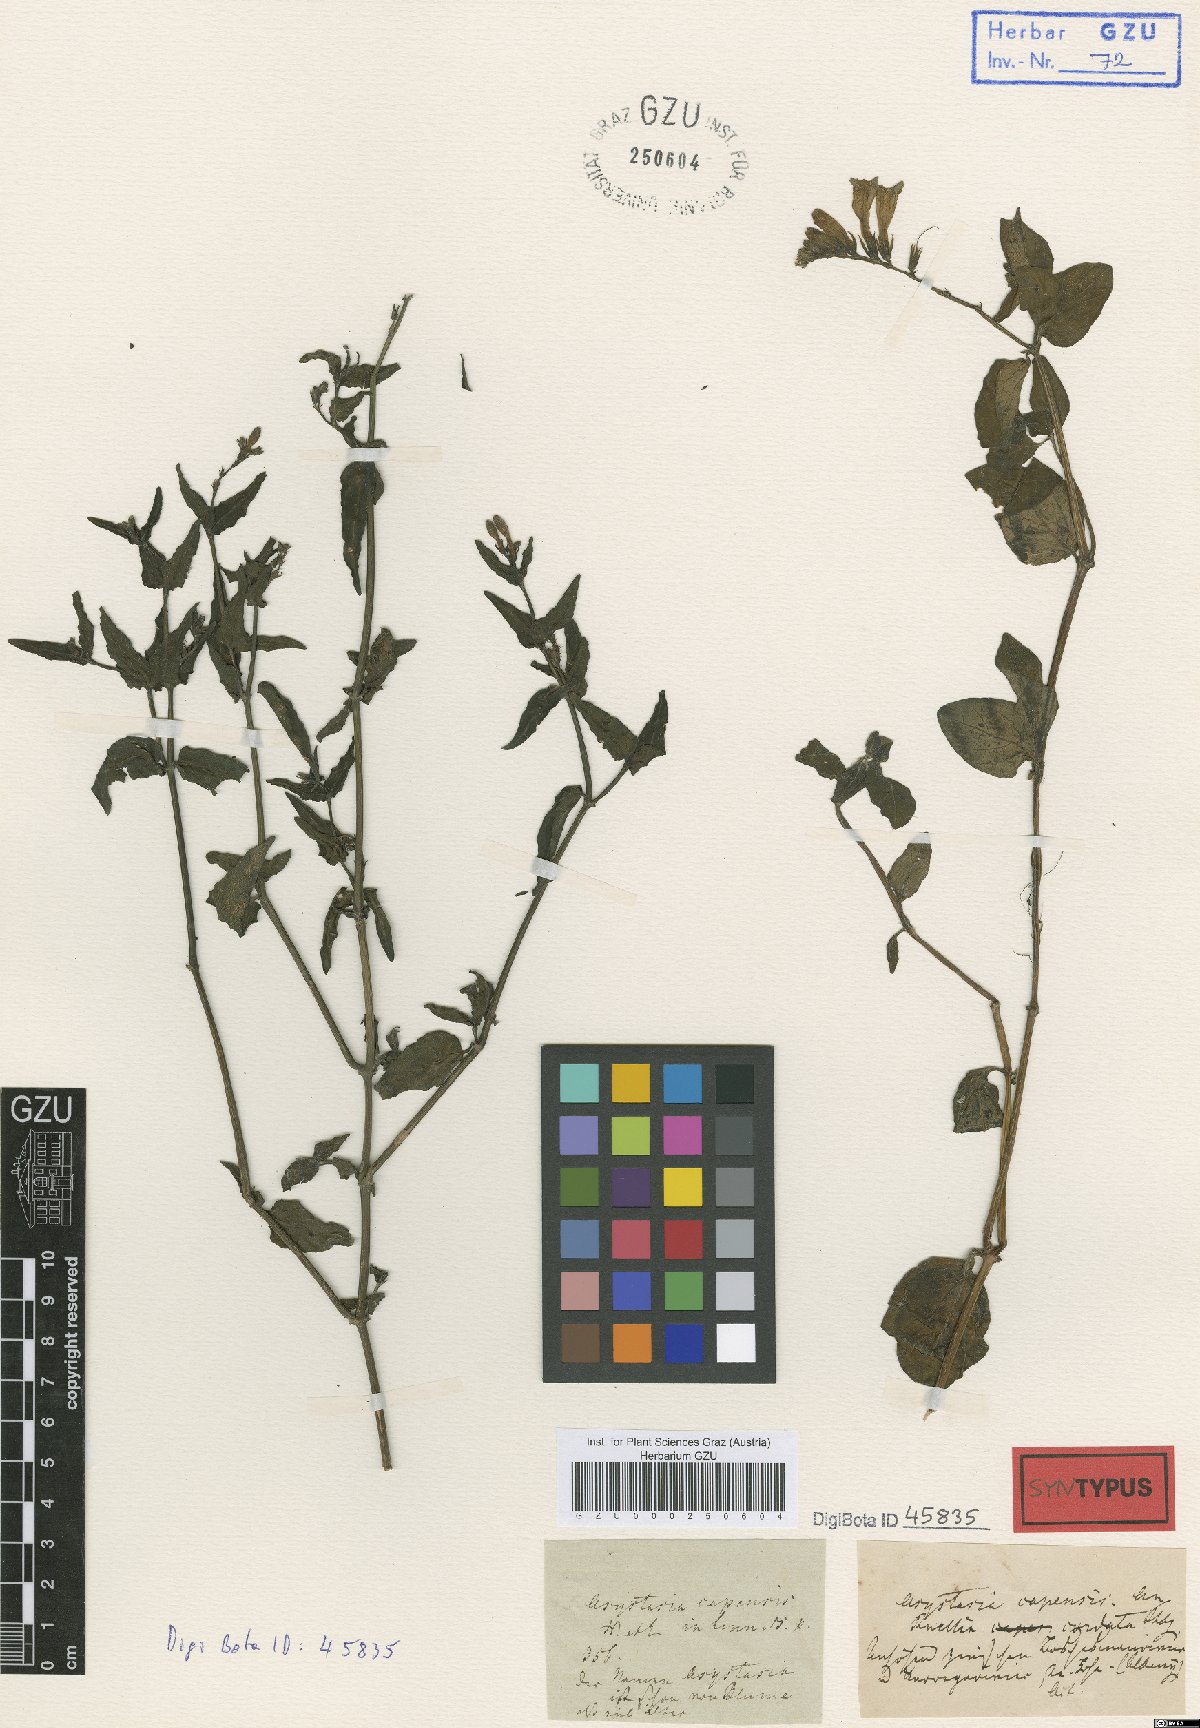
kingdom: Plantae
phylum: Tracheophyta
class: Magnoliopsida
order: Lamiales
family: Acanthaceae
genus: Asystasia
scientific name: Asystasia intrusa
